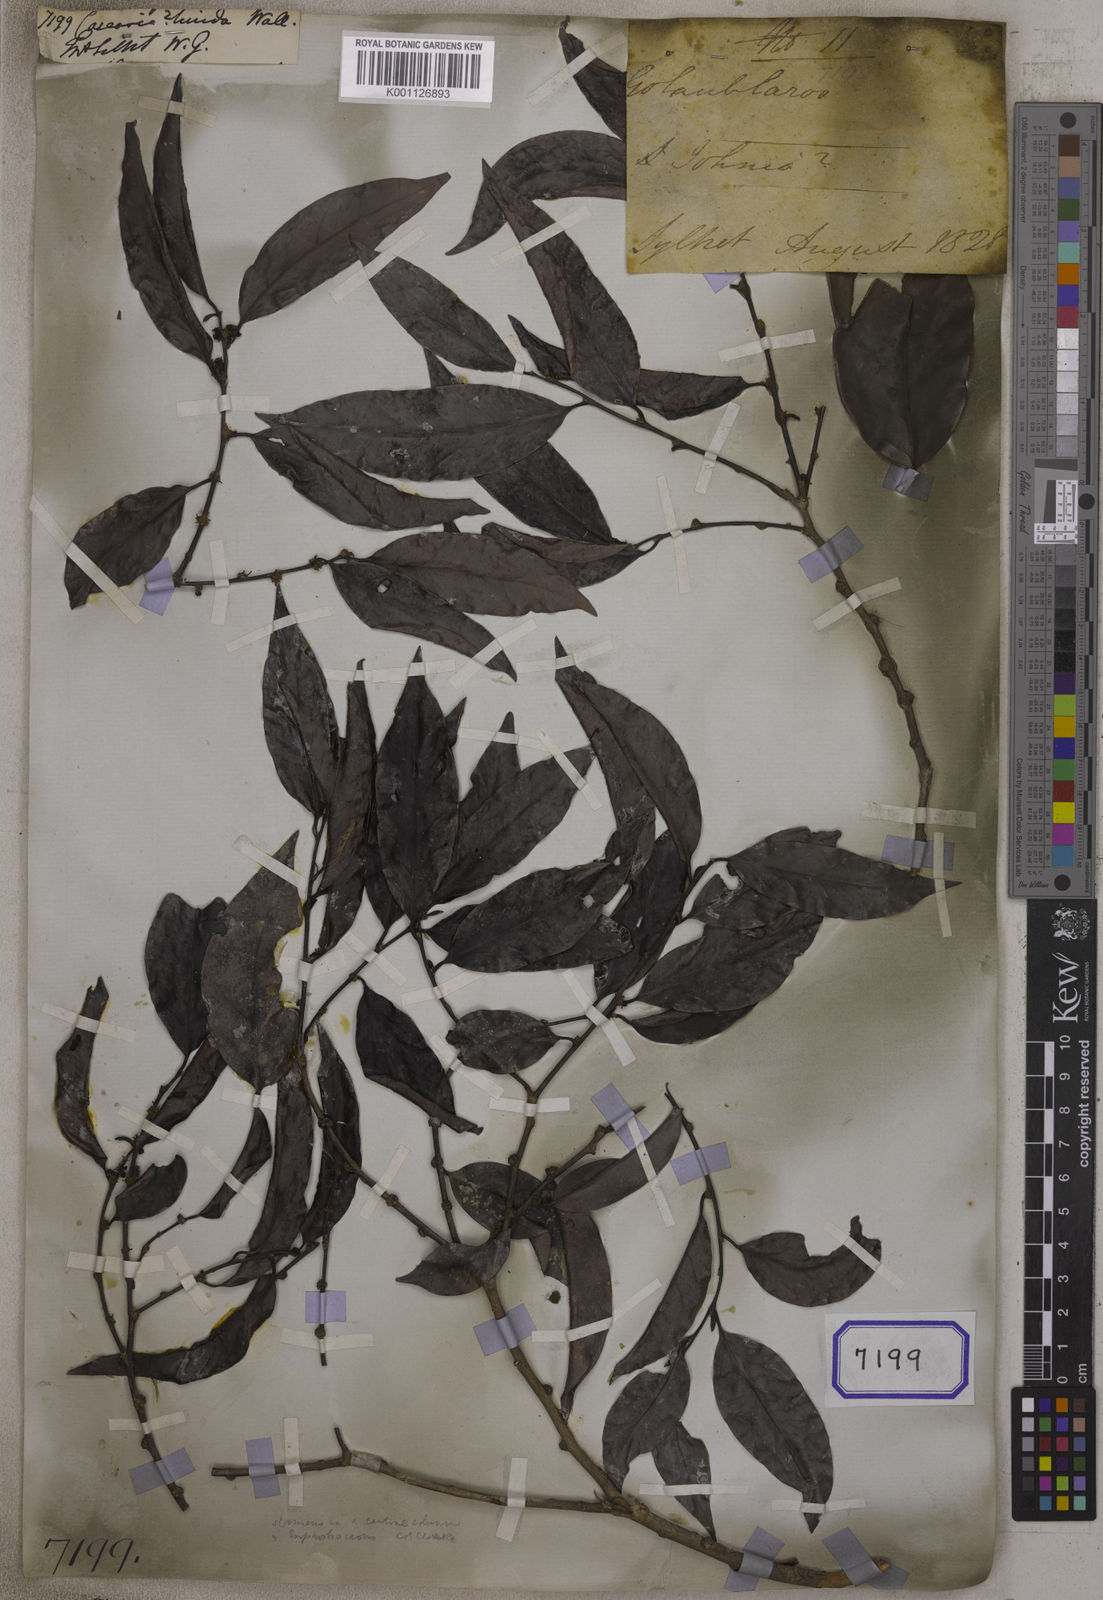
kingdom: Plantae
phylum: Tracheophyta
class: Magnoliopsida
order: Malpighiales
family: Salicaceae
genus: Casearia
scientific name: Casearia
